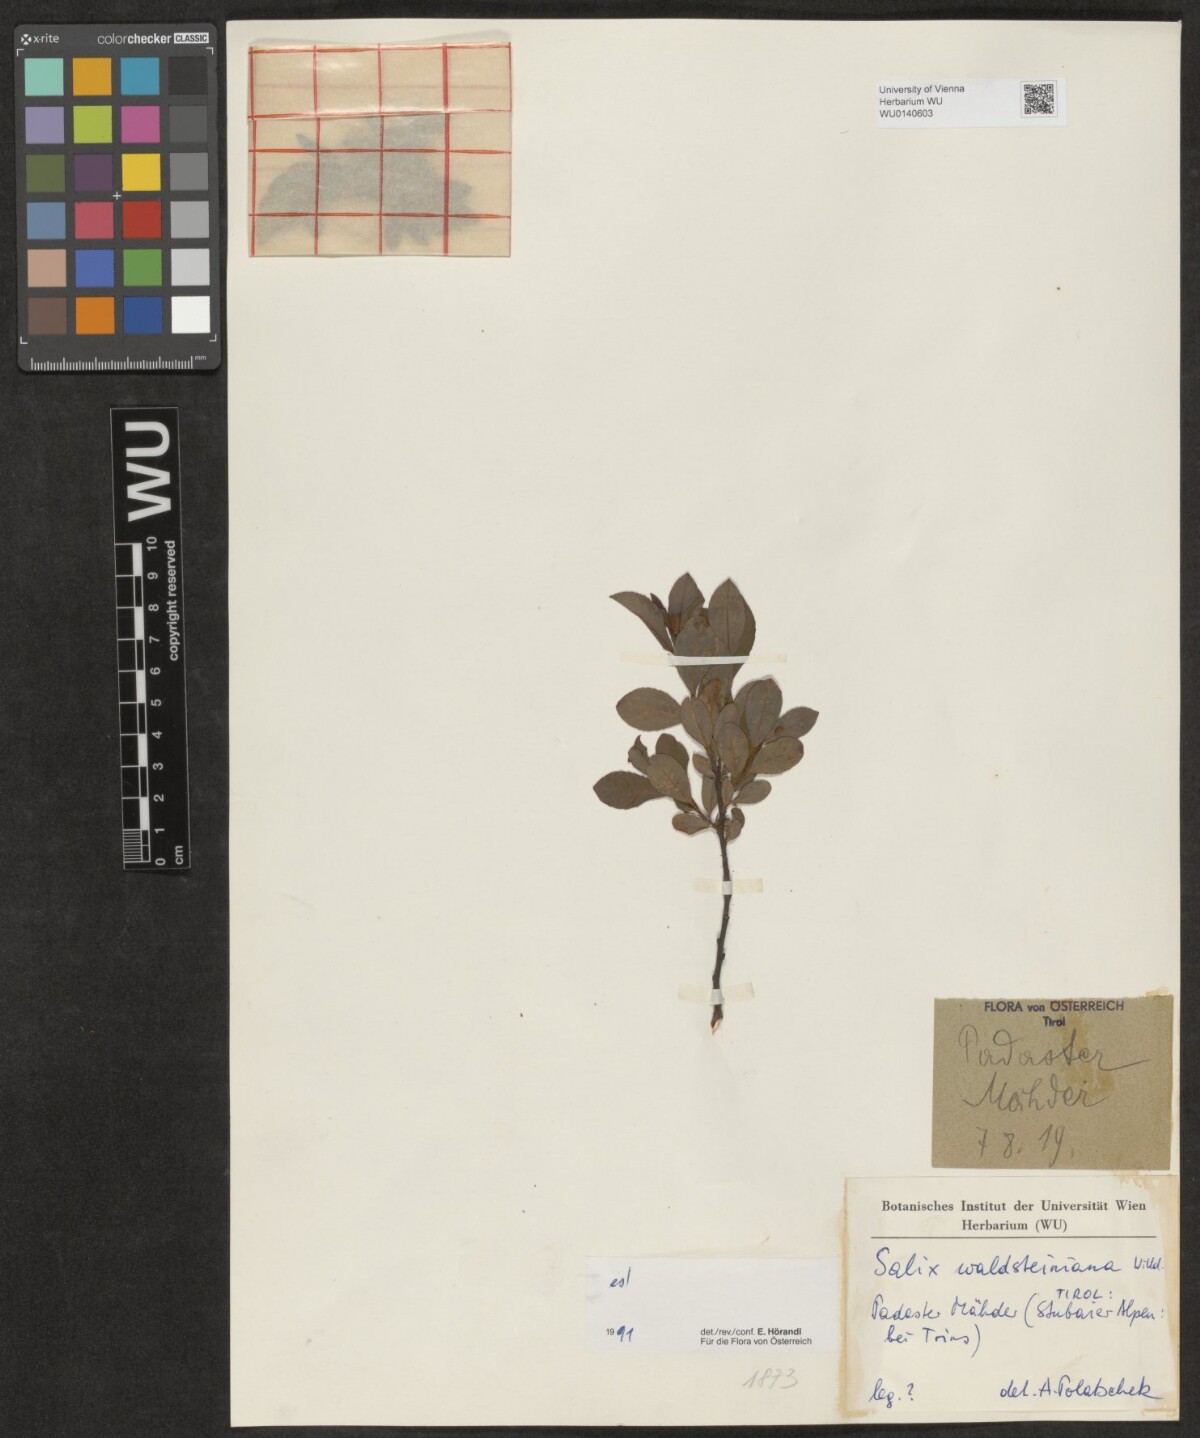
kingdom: Plantae
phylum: Tracheophyta
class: Magnoliopsida
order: Malpighiales
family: Salicaceae
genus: Salix
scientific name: Salix waldsteiniana
